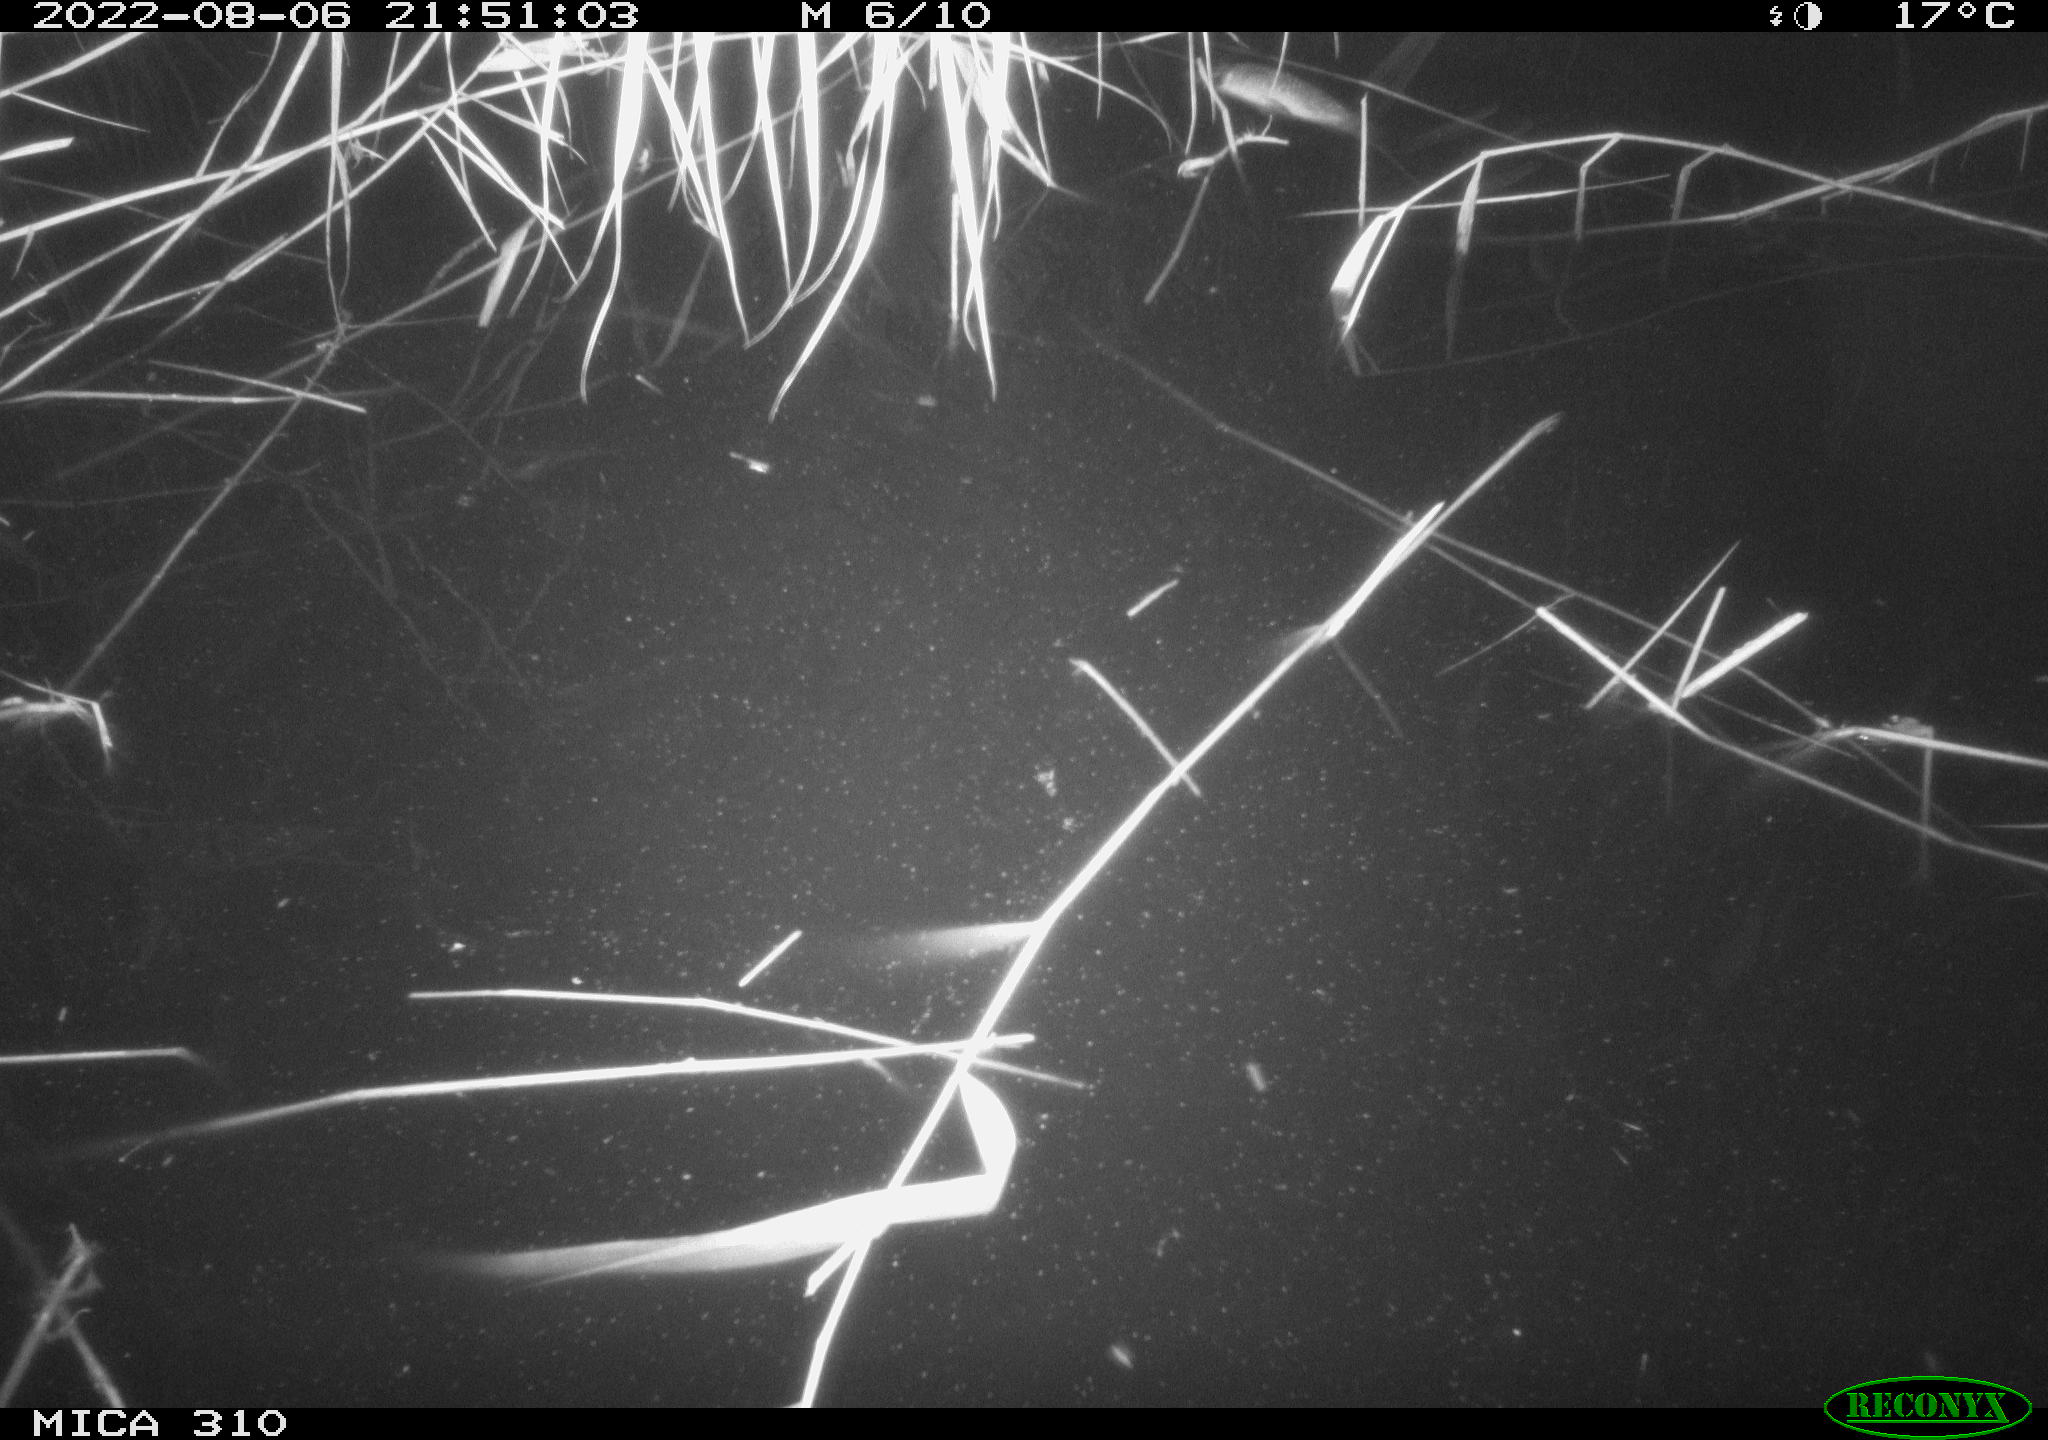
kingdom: Animalia
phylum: Chordata
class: Aves
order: Anseriformes
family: Anatidae
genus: Anas
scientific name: Anas platyrhynchos
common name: Mallard
